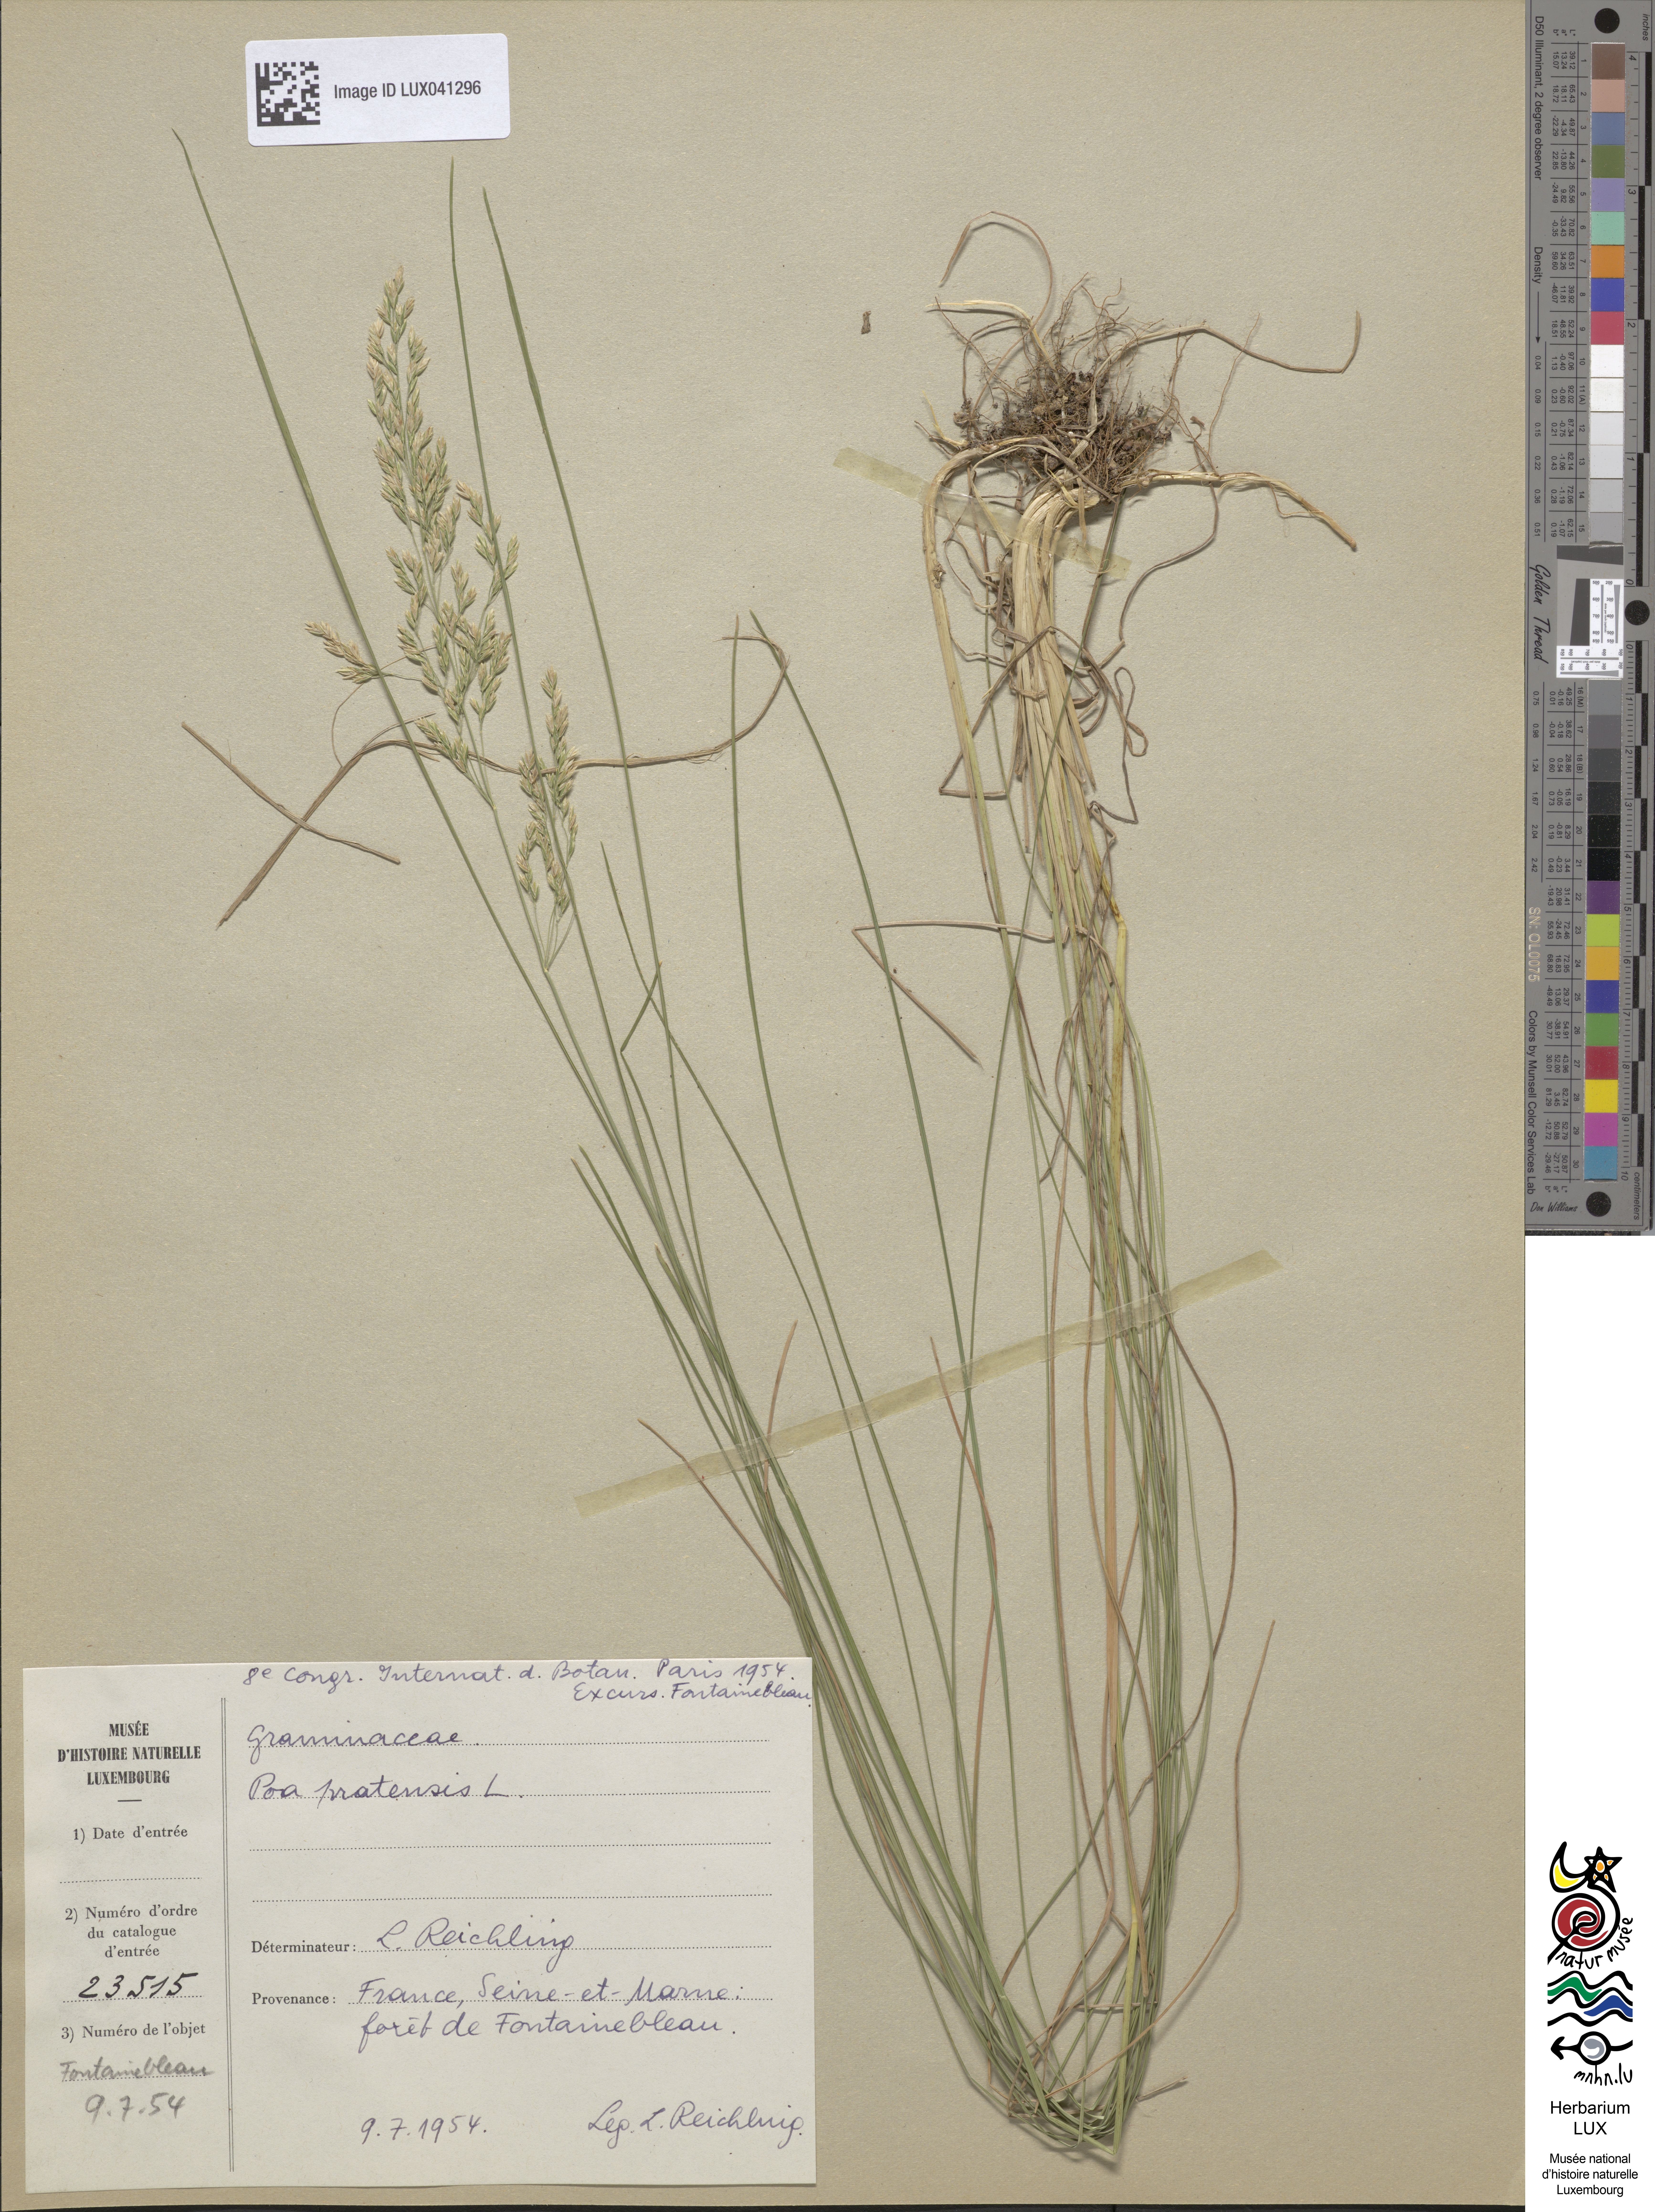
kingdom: Plantae
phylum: Tracheophyta
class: Liliopsida
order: Poales
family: Poaceae
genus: Poa
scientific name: Poa pratensis
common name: Kentucky bluegrass
